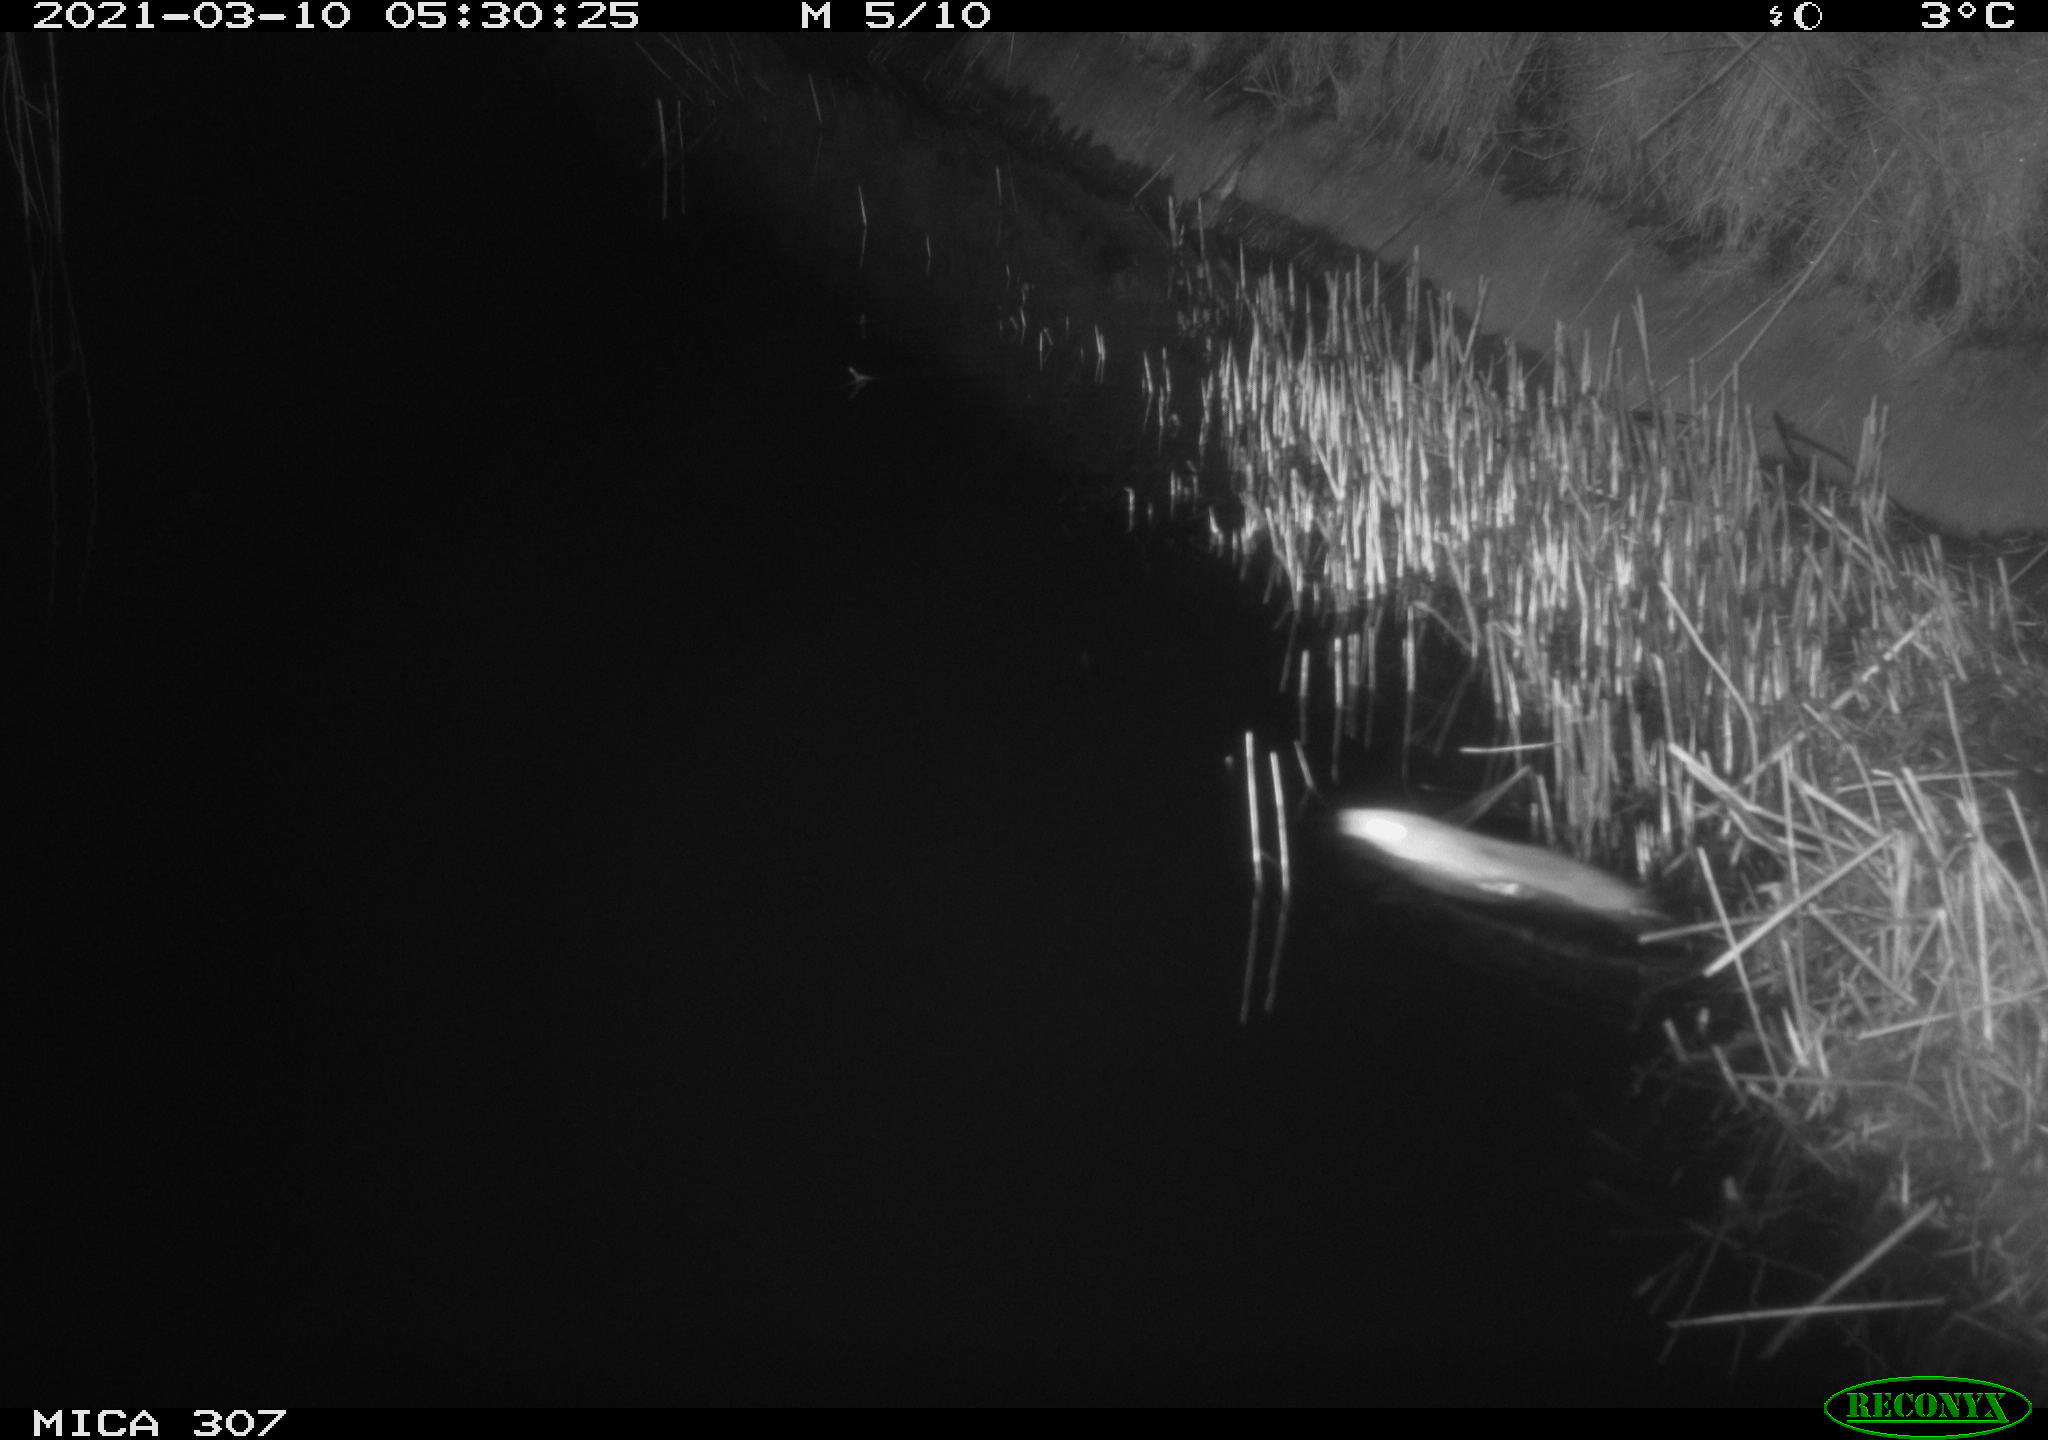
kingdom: Animalia
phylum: Chordata
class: Mammalia
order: Rodentia
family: Muridae
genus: Rattus
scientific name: Rattus norvegicus
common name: Brown rat
